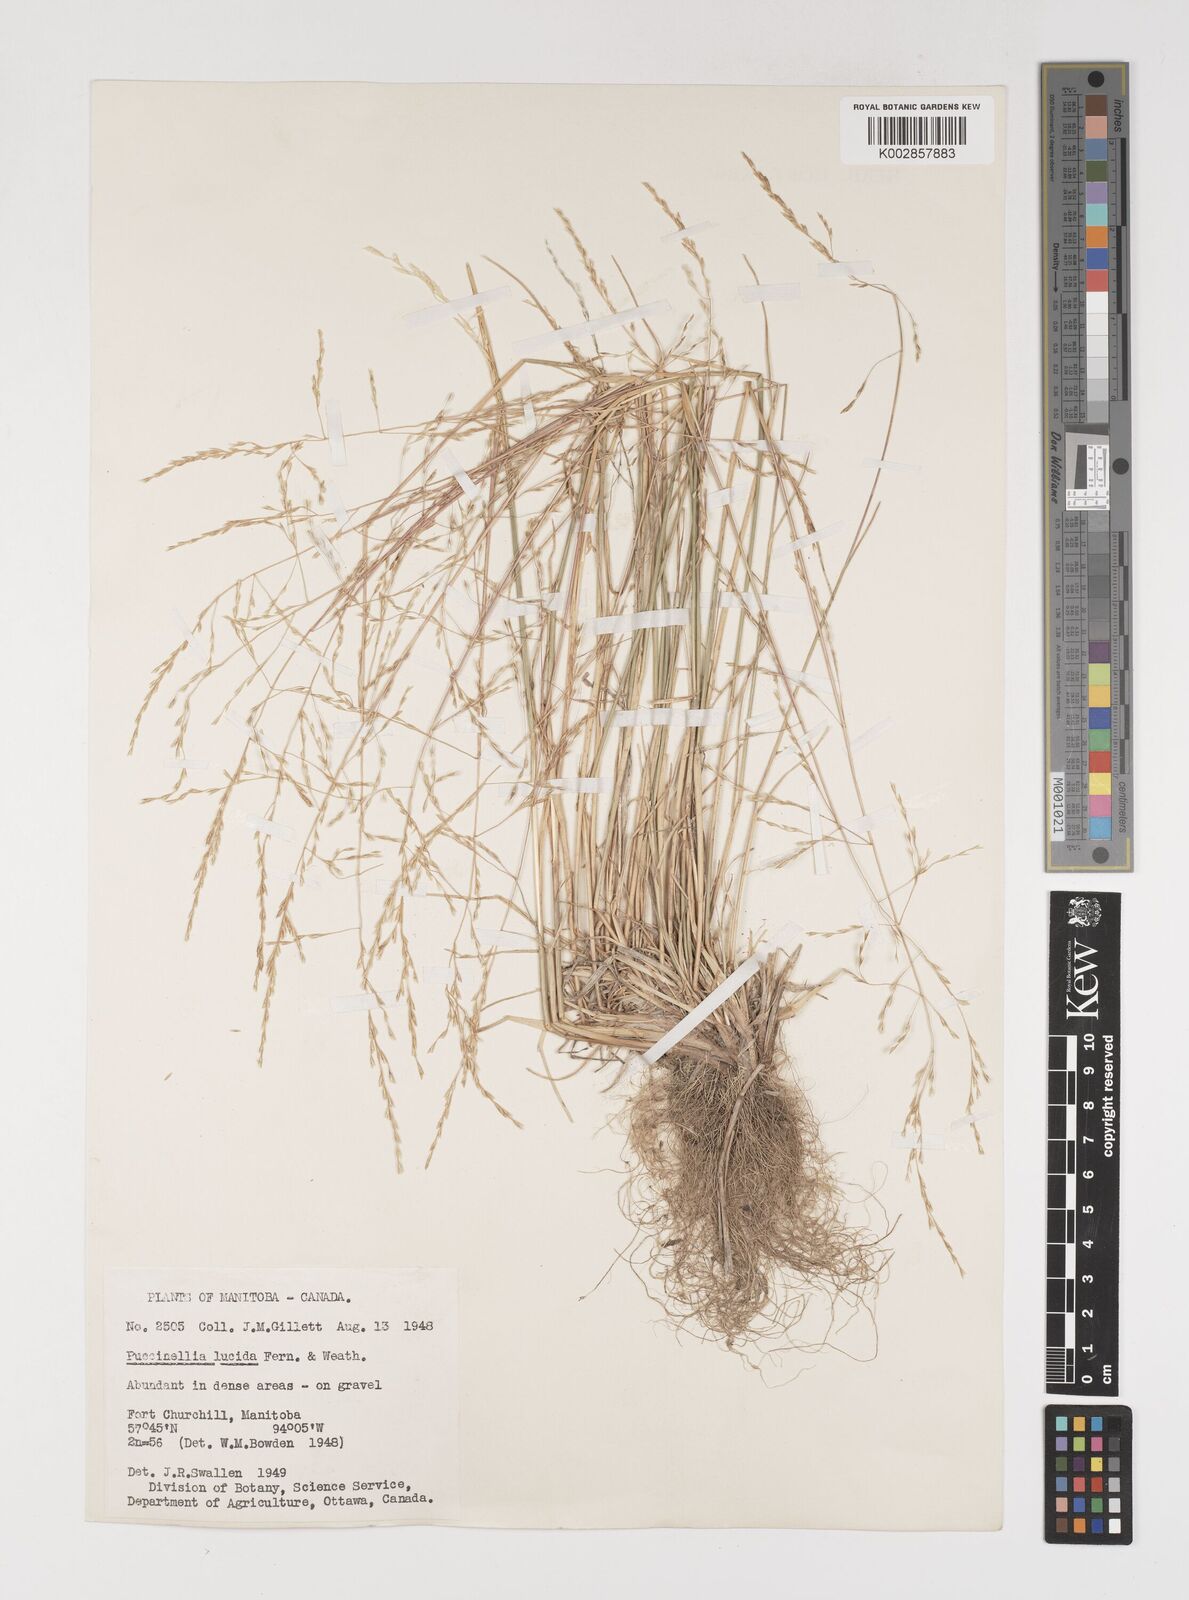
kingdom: Plantae
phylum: Tracheophyta
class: Liliopsida
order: Poales
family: Poaceae
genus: Puccinellia
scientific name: Puccinellia
